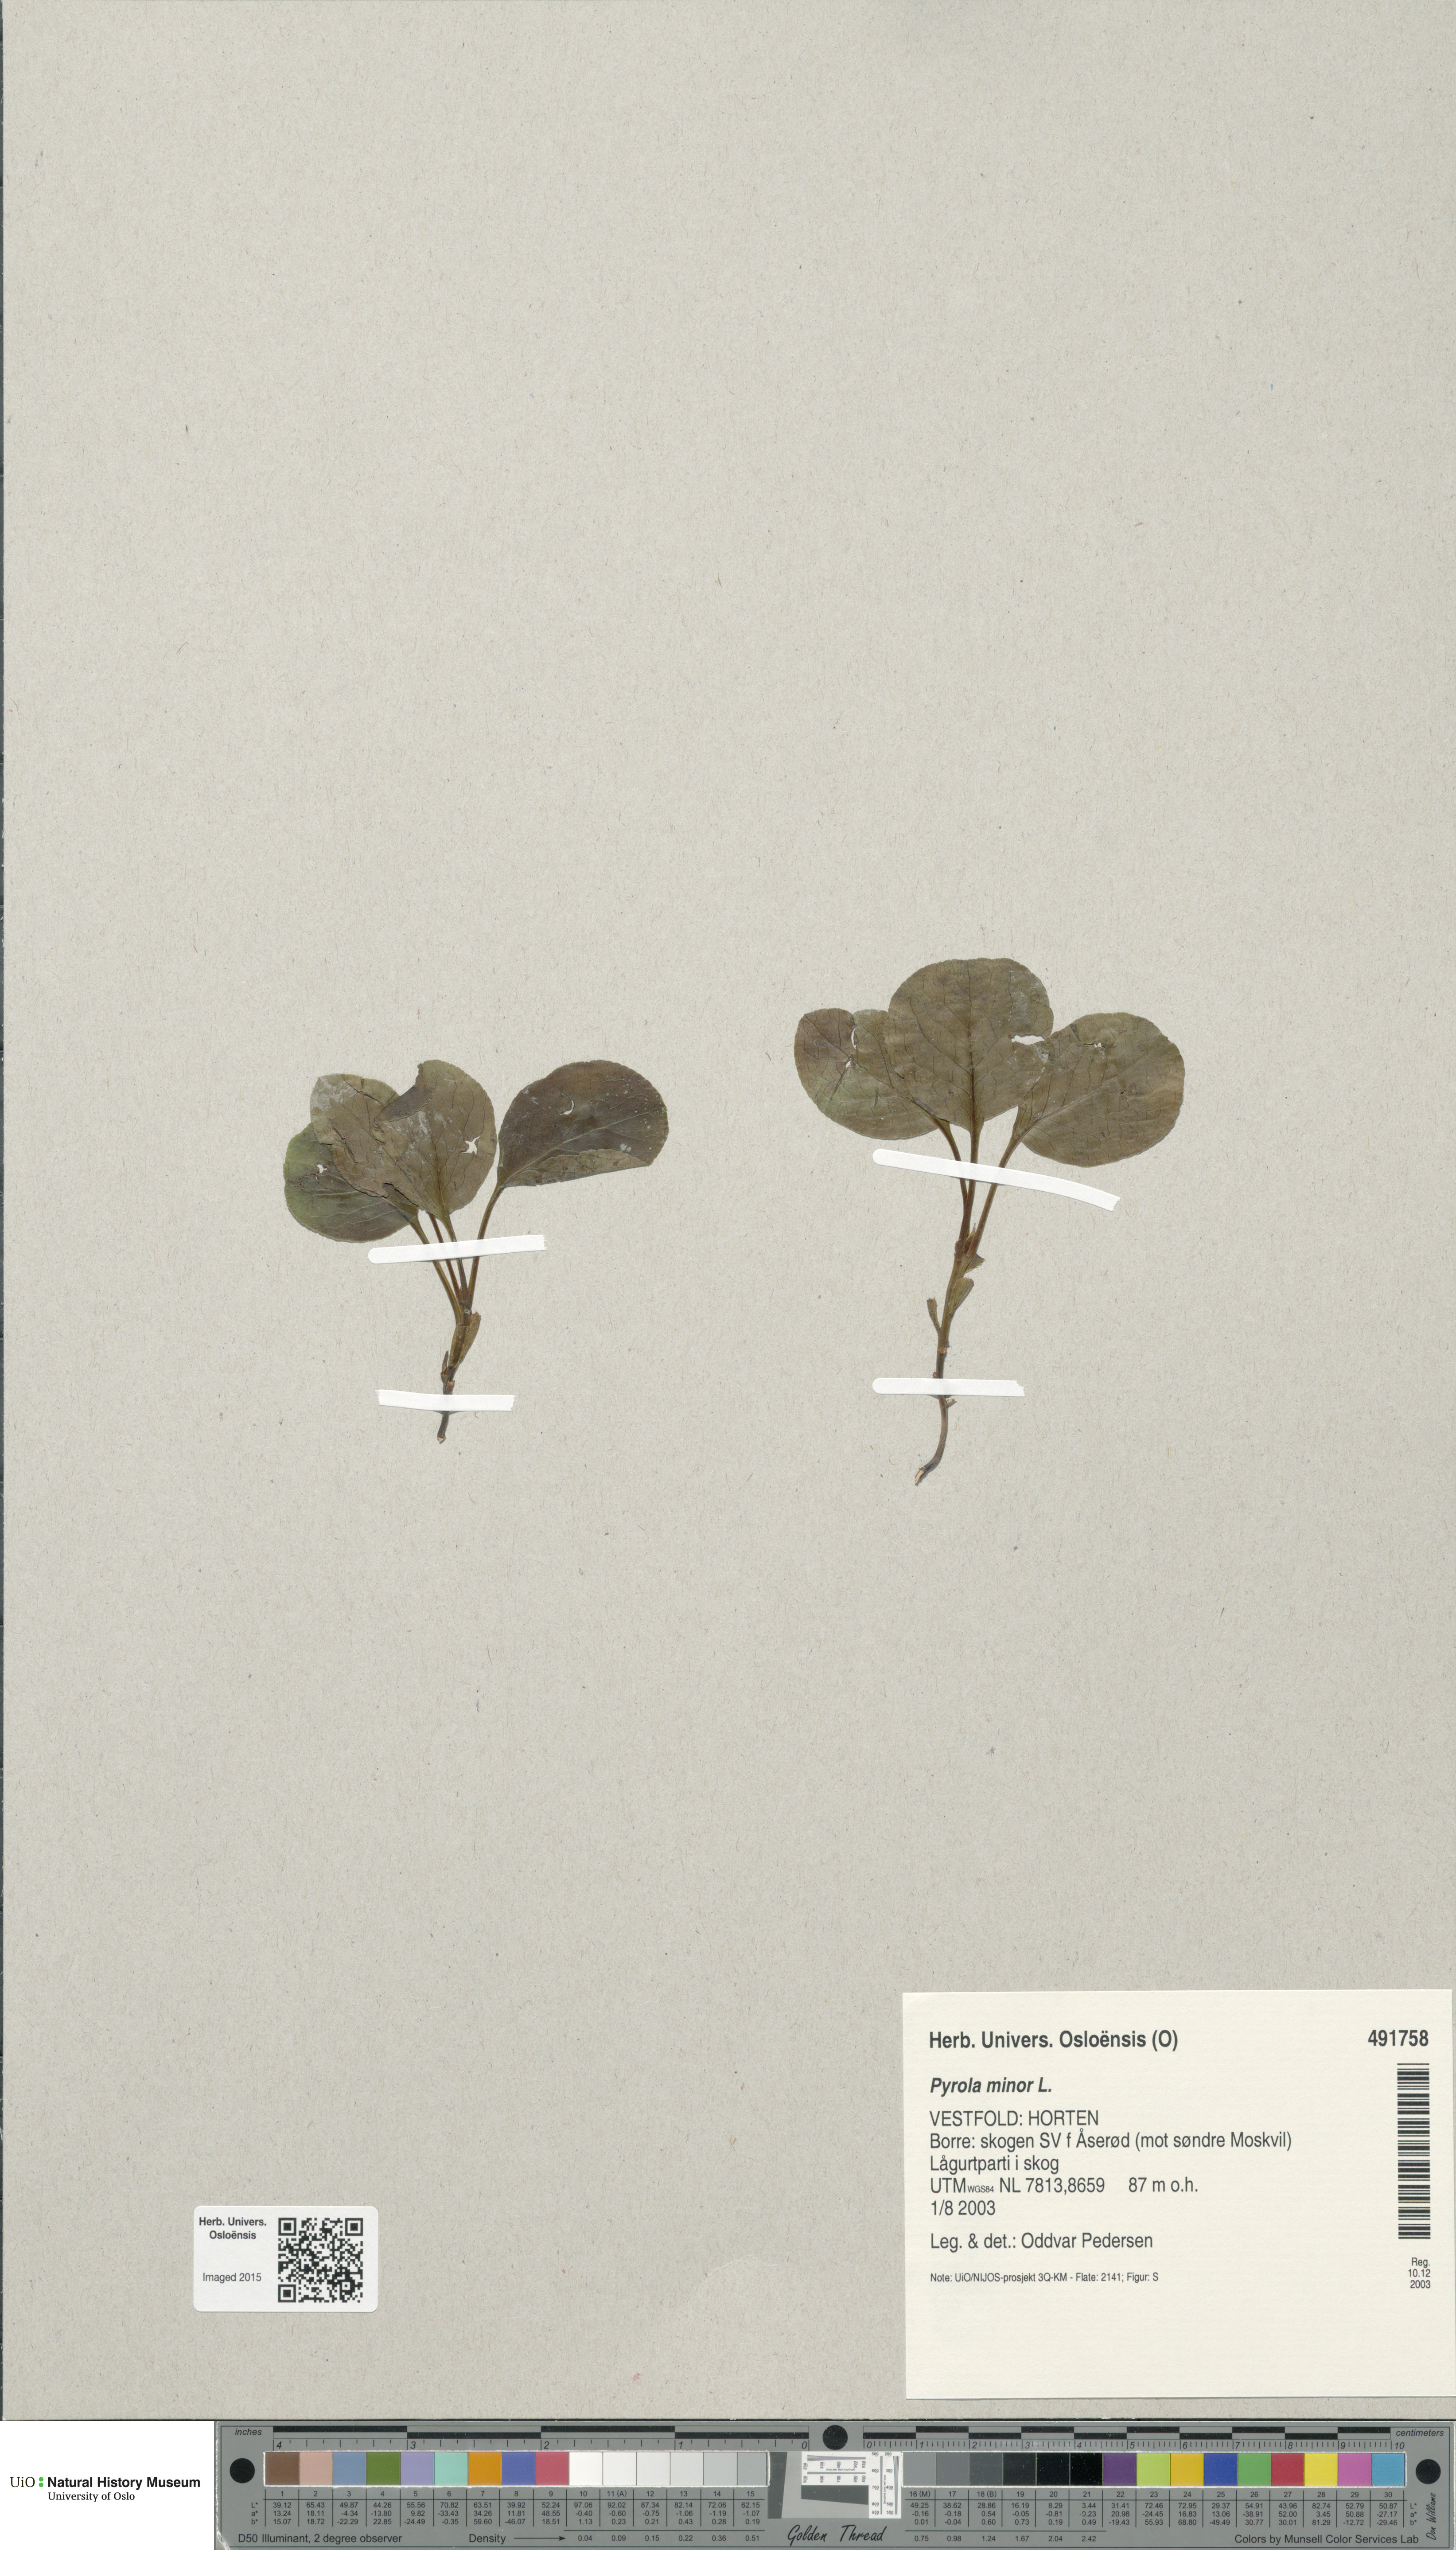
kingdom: Plantae
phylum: Tracheophyta
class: Magnoliopsida
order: Ericales
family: Ericaceae
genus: Pyrola
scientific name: Pyrola minor
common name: Common wintergreen
